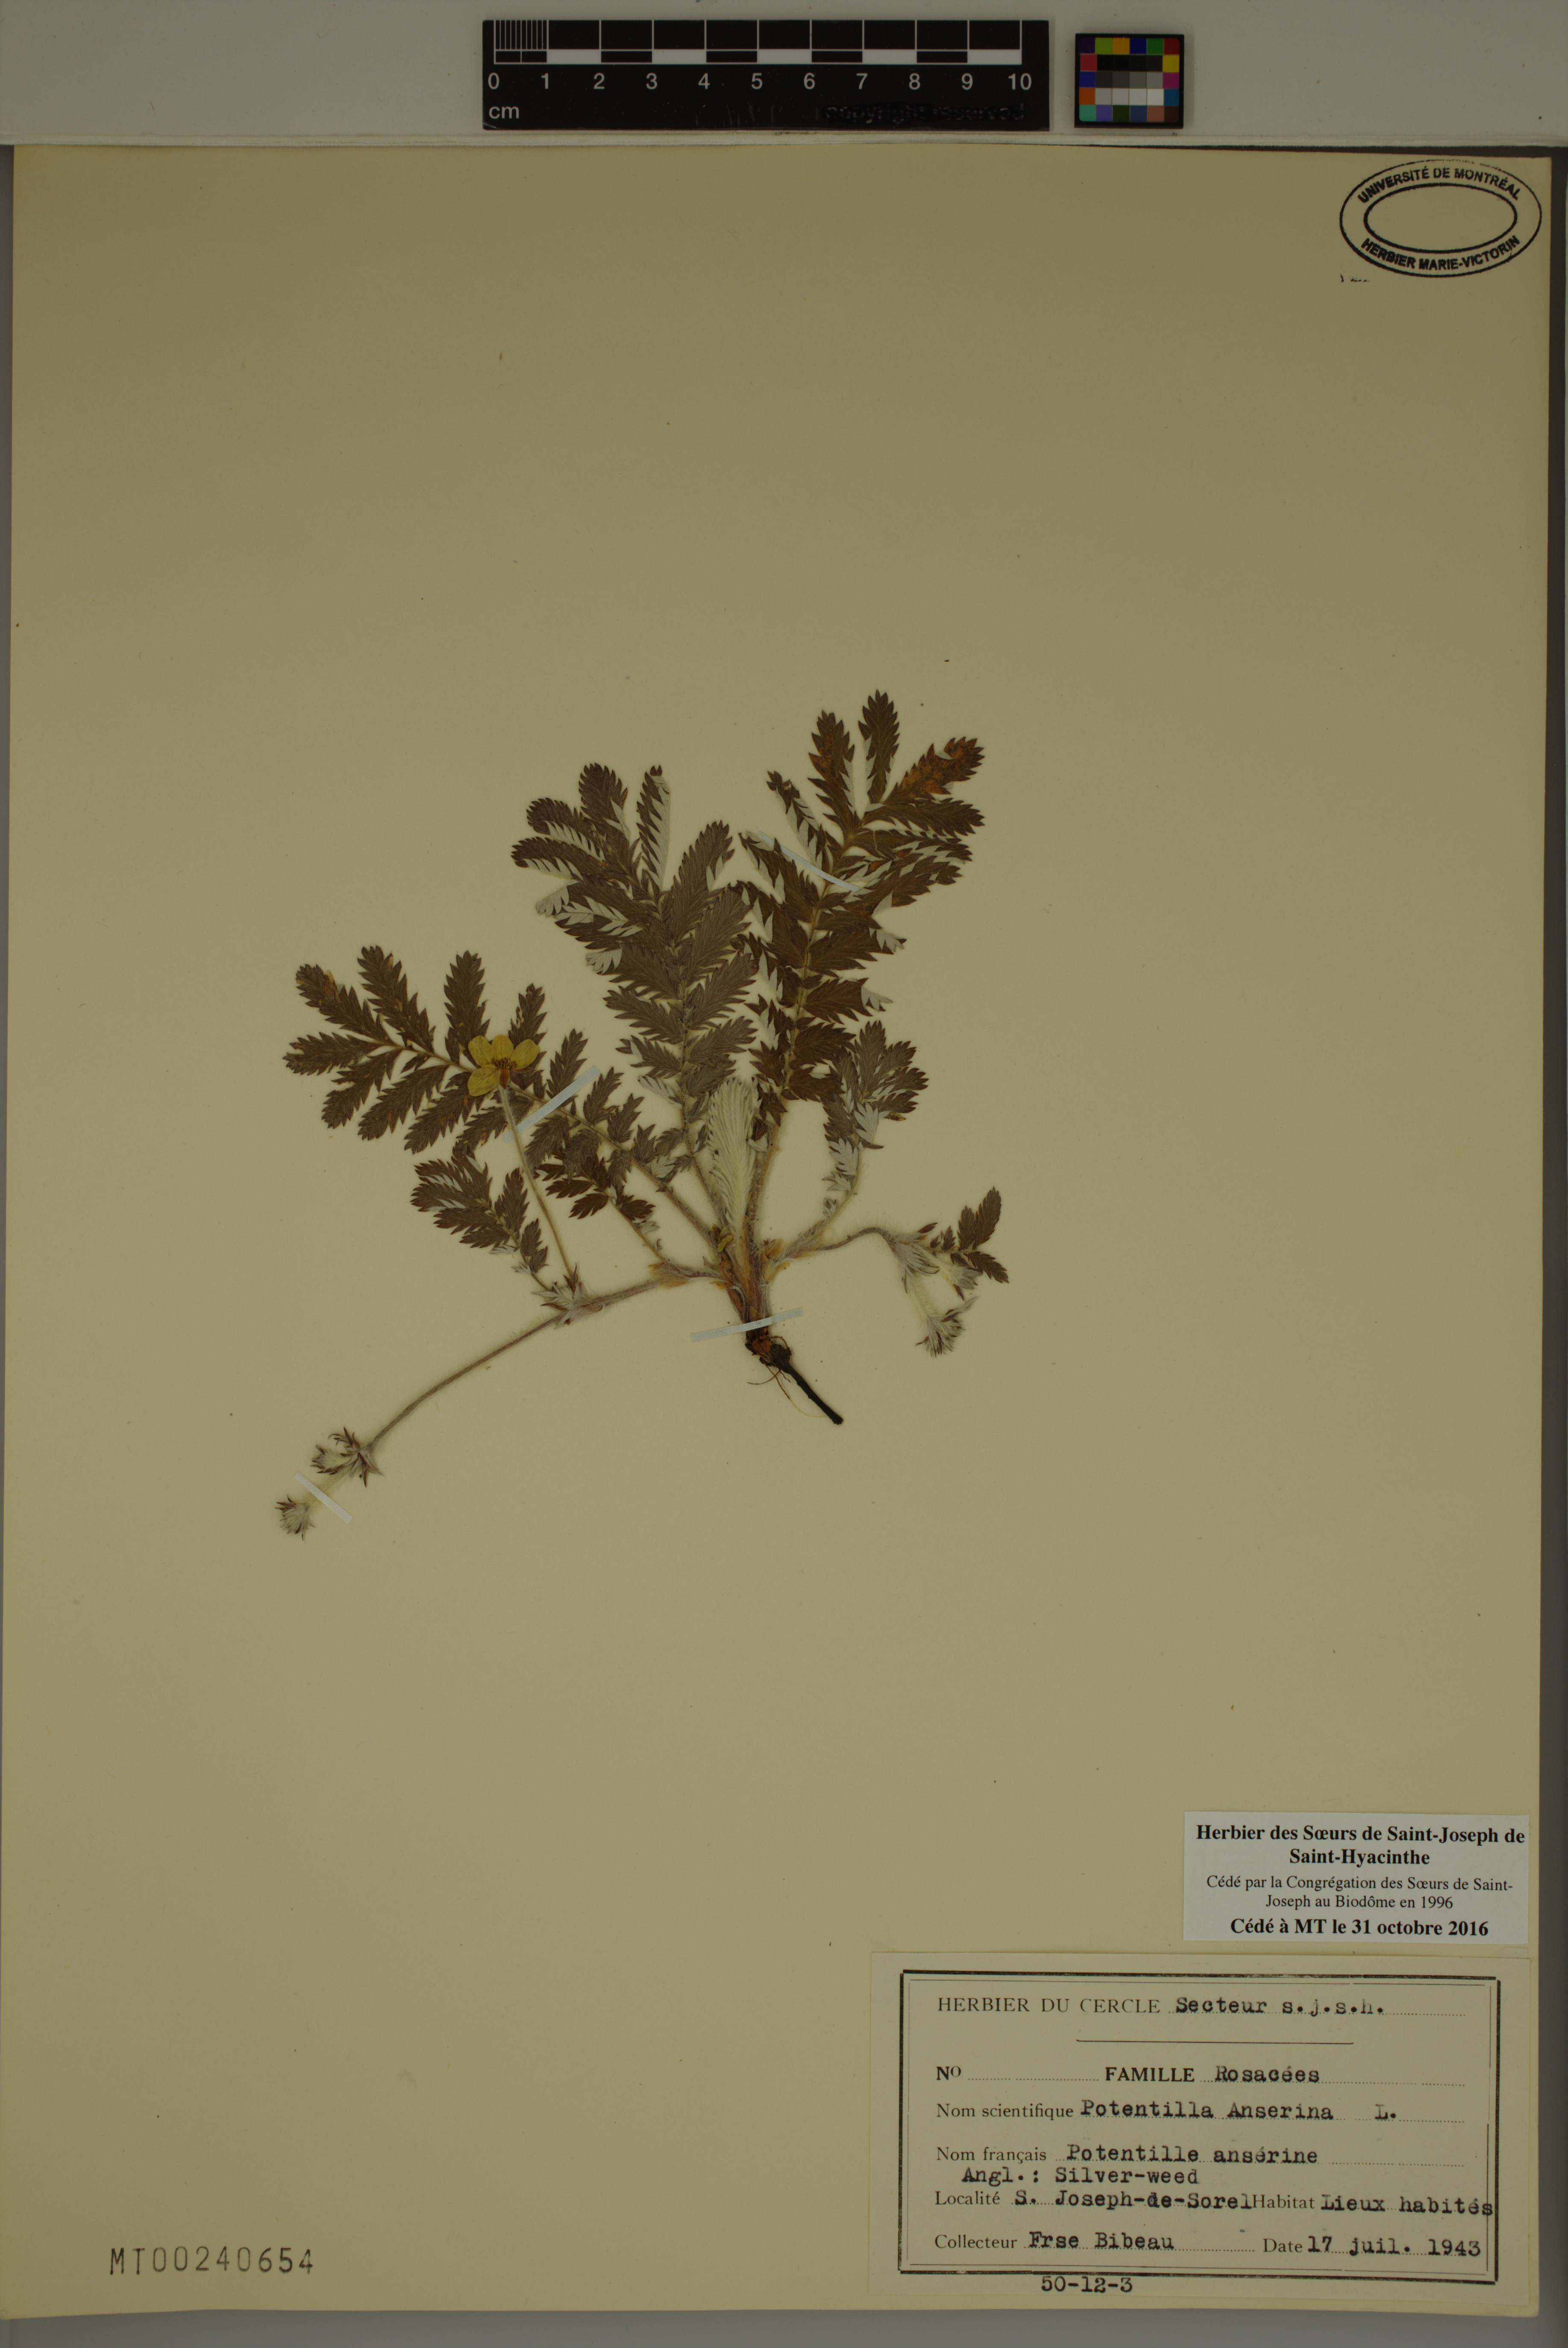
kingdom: Plantae
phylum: Tracheophyta
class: Magnoliopsida
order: Rosales
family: Rosaceae
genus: Argentina
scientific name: Argentina anserina
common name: Common silverweed
